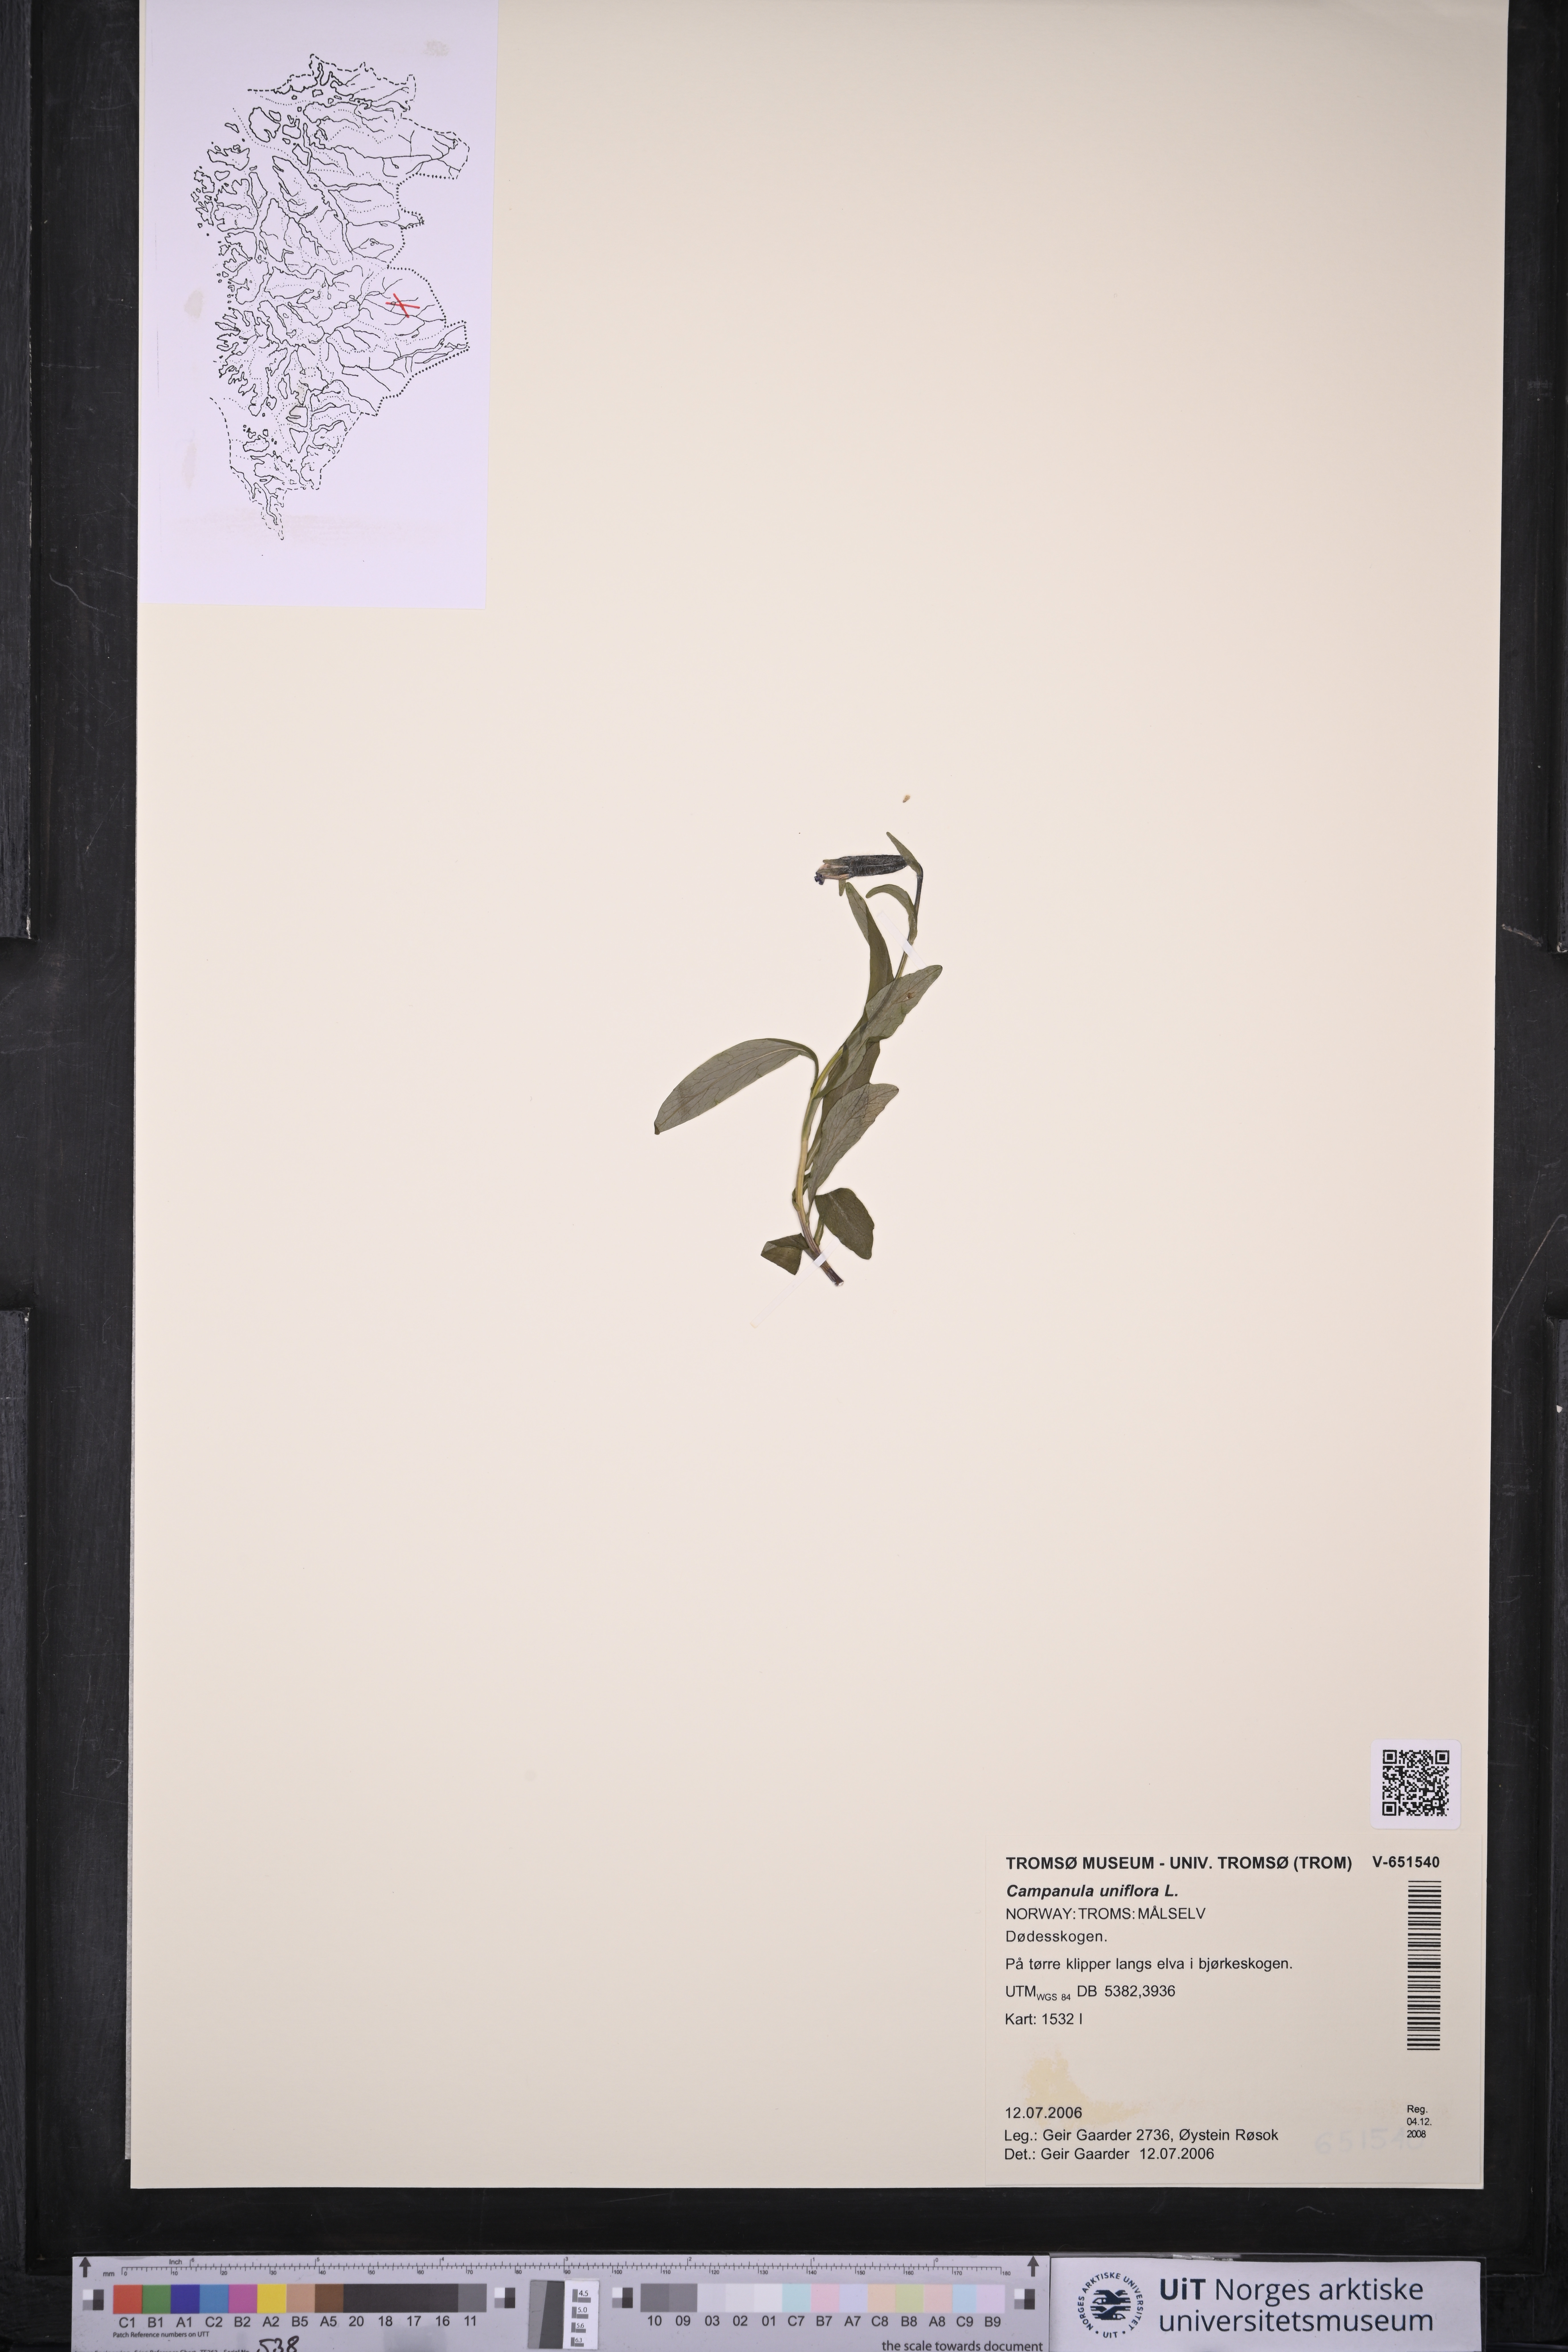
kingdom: Plantae
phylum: Tracheophyta
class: Magnoliopsida
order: Asterales
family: Campanulaceae
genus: Melanocalyx
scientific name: Melanocalyx uniflora
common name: Alpine harebell
